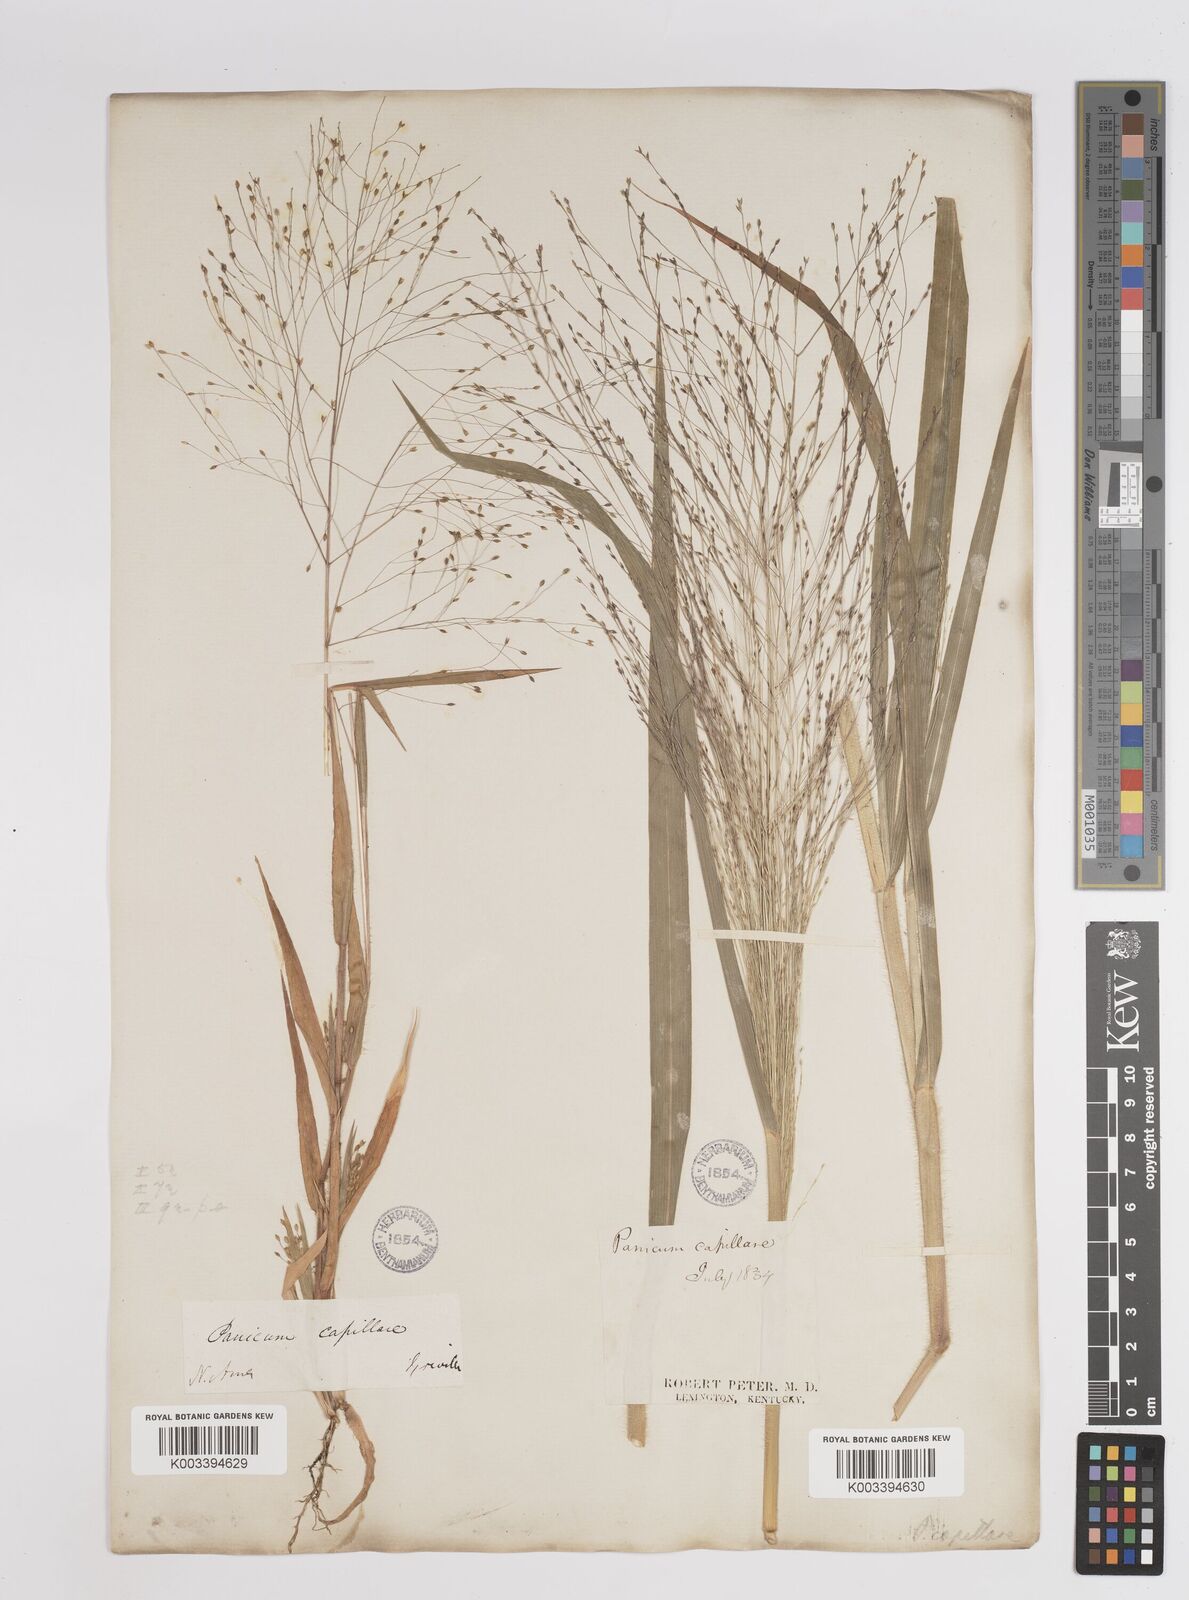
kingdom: Plantae
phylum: Tracheophyta
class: Liliopsida
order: Poales
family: Poaceae
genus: Panicum
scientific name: Panicum capillare
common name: Witch-grass
